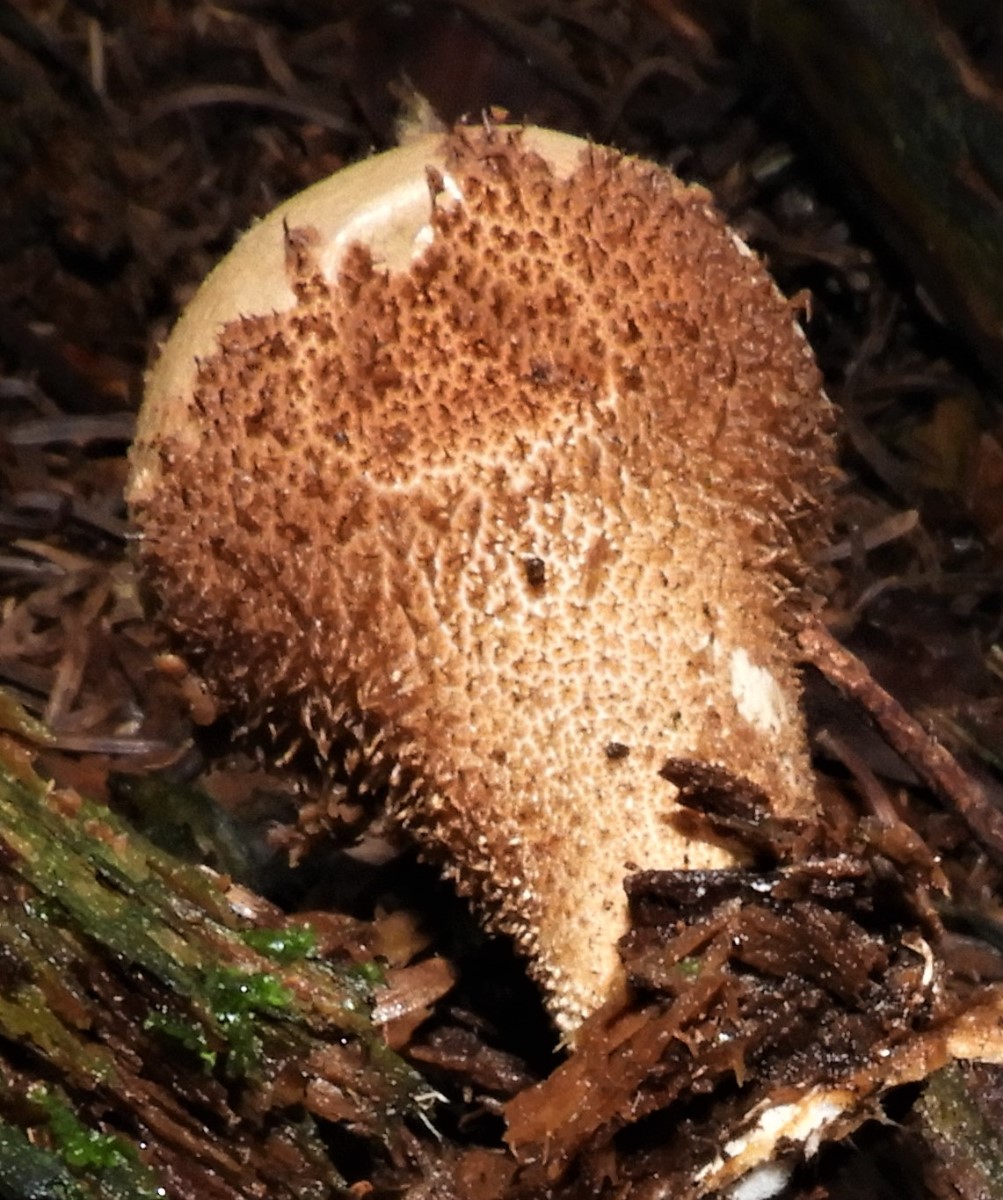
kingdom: Fungi
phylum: Basidiomycota
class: Agaricomycetes
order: Agaricales
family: Lycoperdaceae
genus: Lycoperdon
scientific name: Lycoperdon nigrescens
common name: sortagtig støvbold
